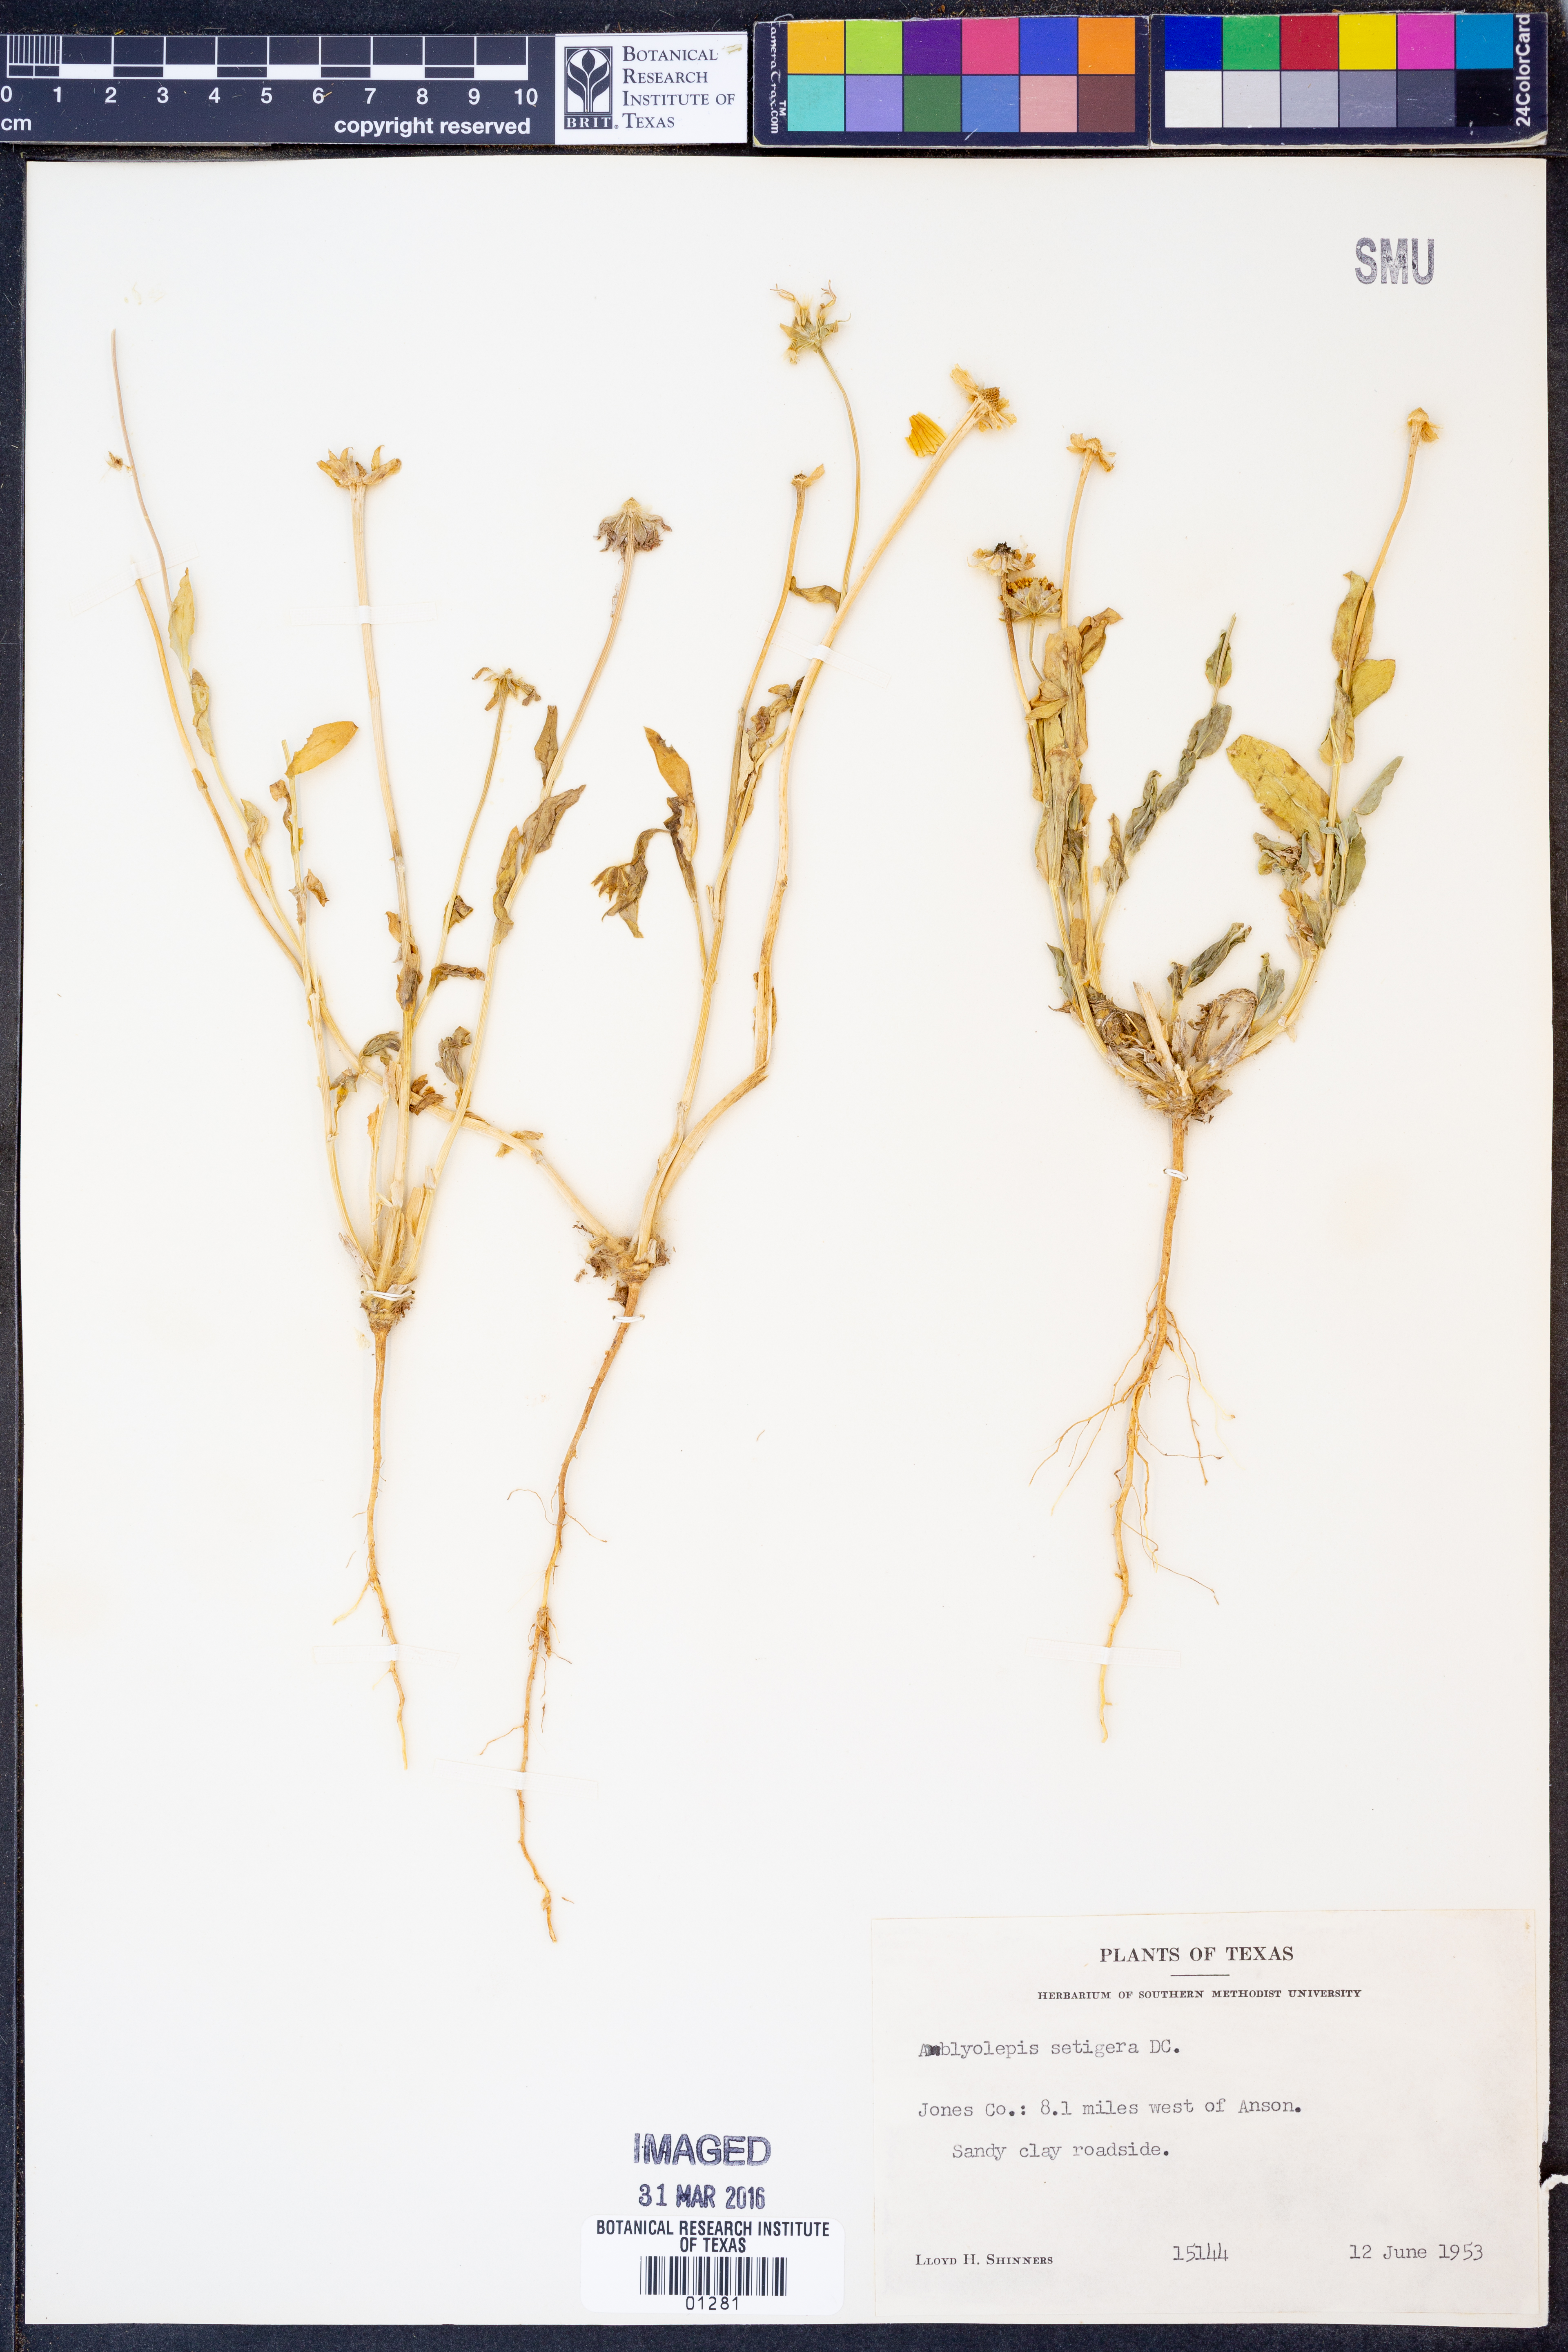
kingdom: Plantae
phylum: Tracheophyta
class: Magnoliopsida
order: Asterales
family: Asteraceae
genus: Amblyolepis
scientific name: Amblyolepis setigera
